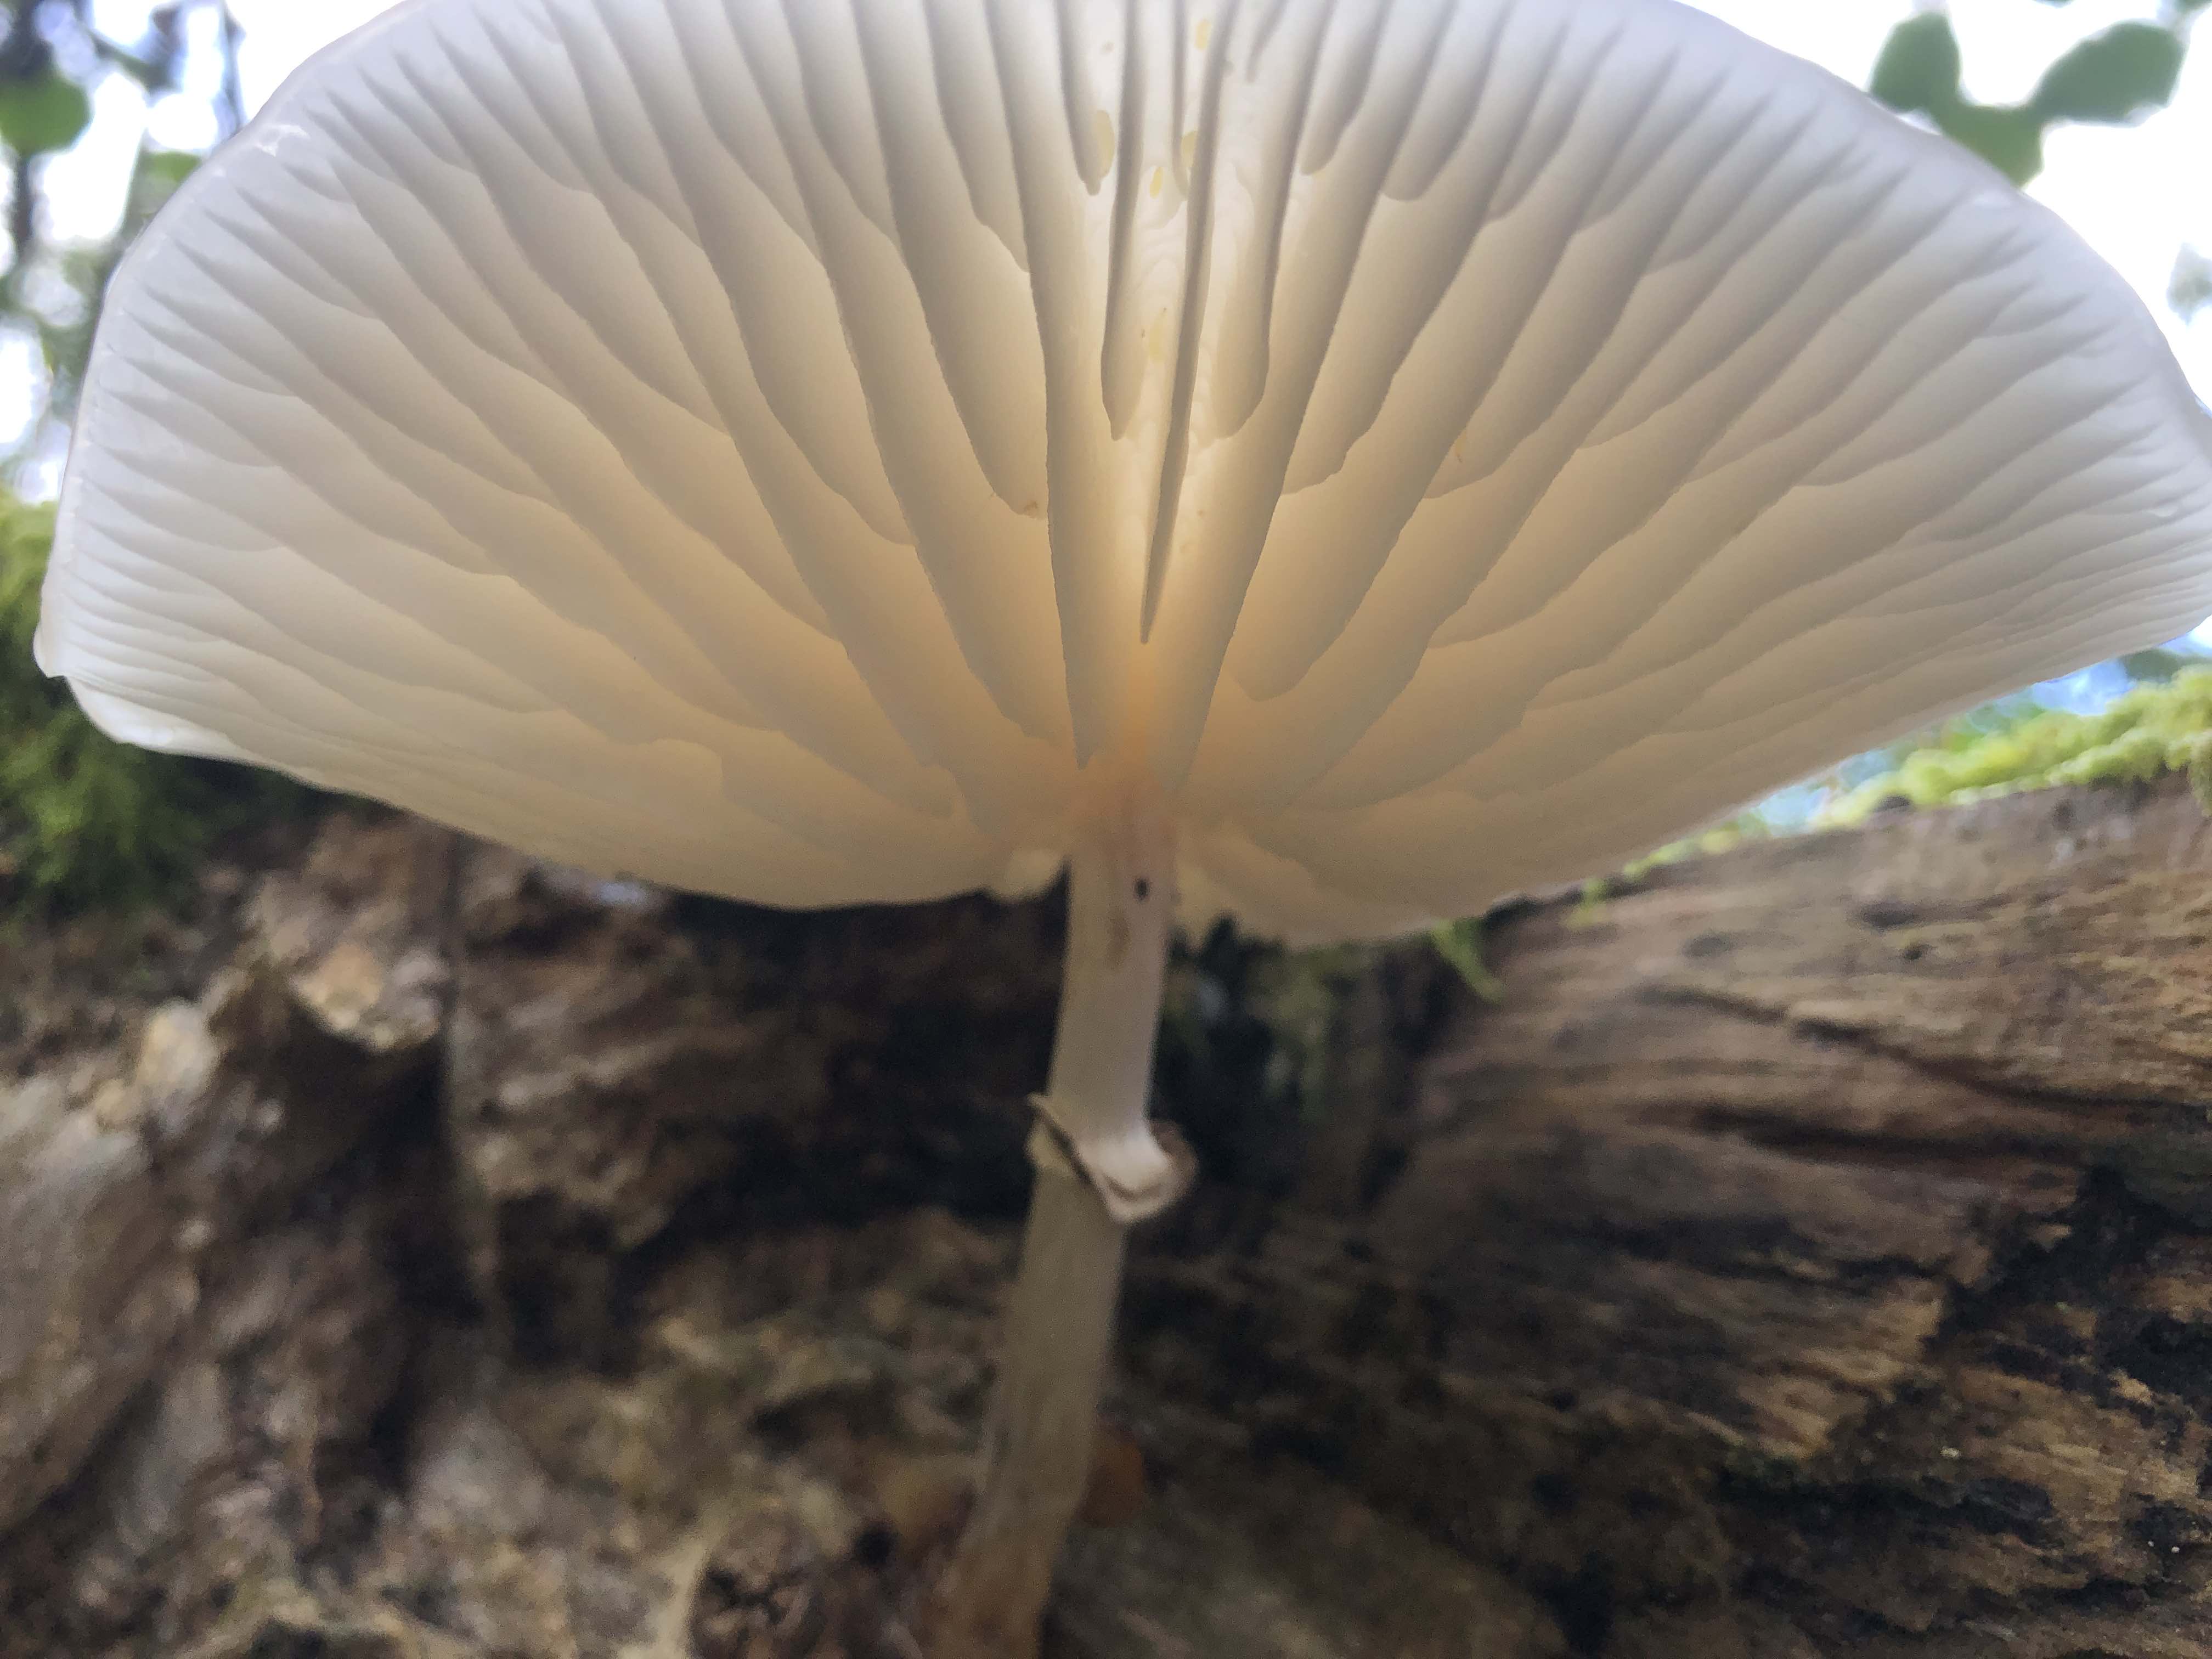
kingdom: Fungi
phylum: Basidiomycota
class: Agaricomycetes
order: Agaricales
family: Physalacriaceae
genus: Mucidula
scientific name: Mucidula mucida
